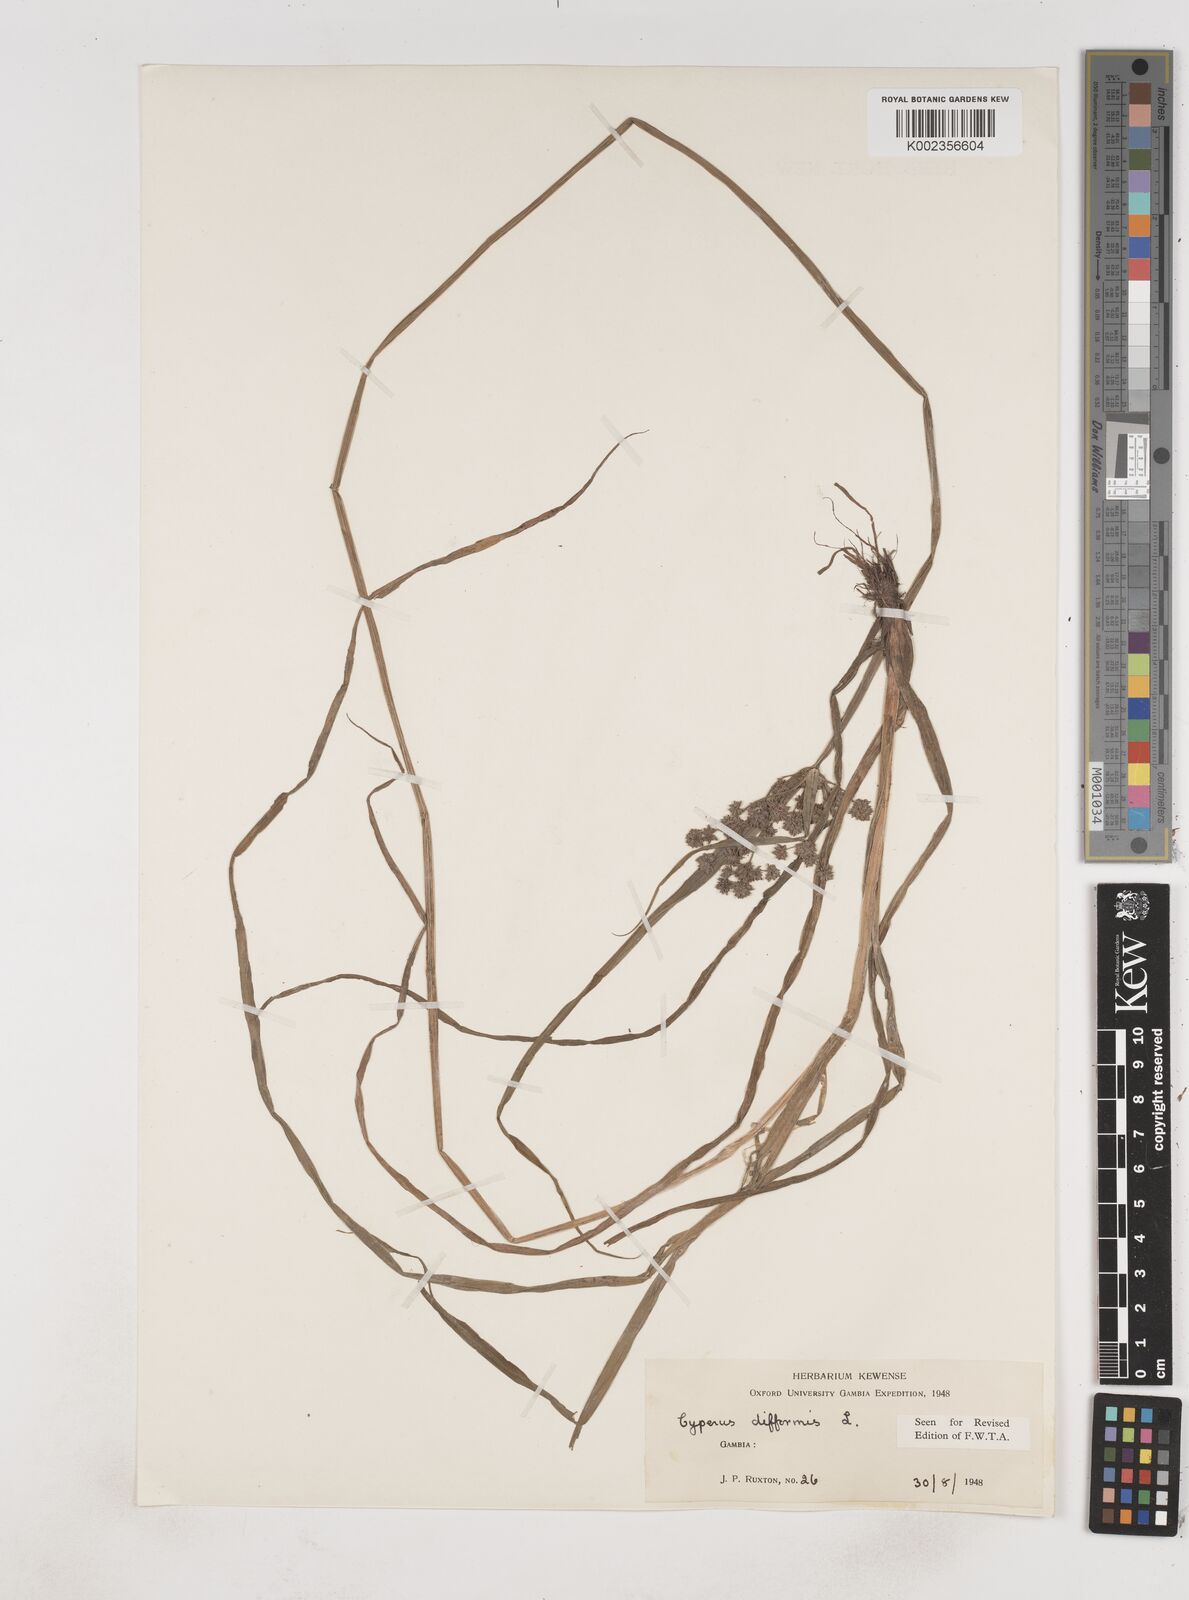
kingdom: Plantae
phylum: Tracheophyta
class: Liliopsida
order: Poales
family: Cyperaceae
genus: Cyperus
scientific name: Cyperus difformis
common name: Variable flatsedge
